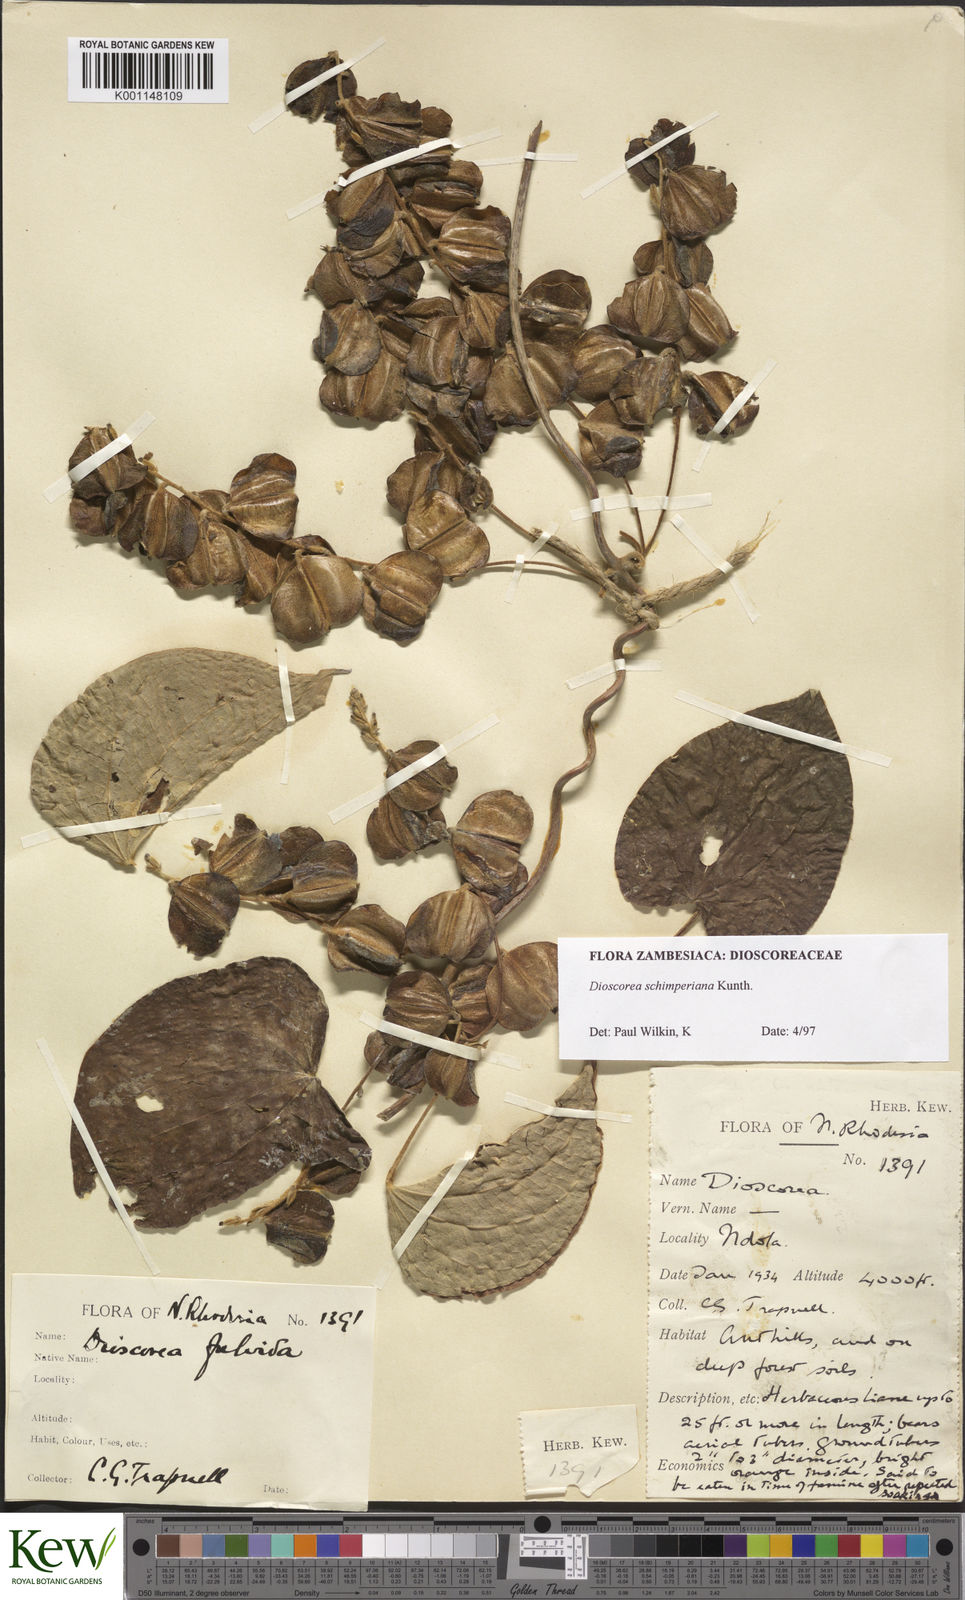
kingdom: Plantae
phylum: Tracheophyta
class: Liliopsida
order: Dioscoreales
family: Dioscoreaceae
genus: Dioscorea
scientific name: Dioscorea schimperiana
